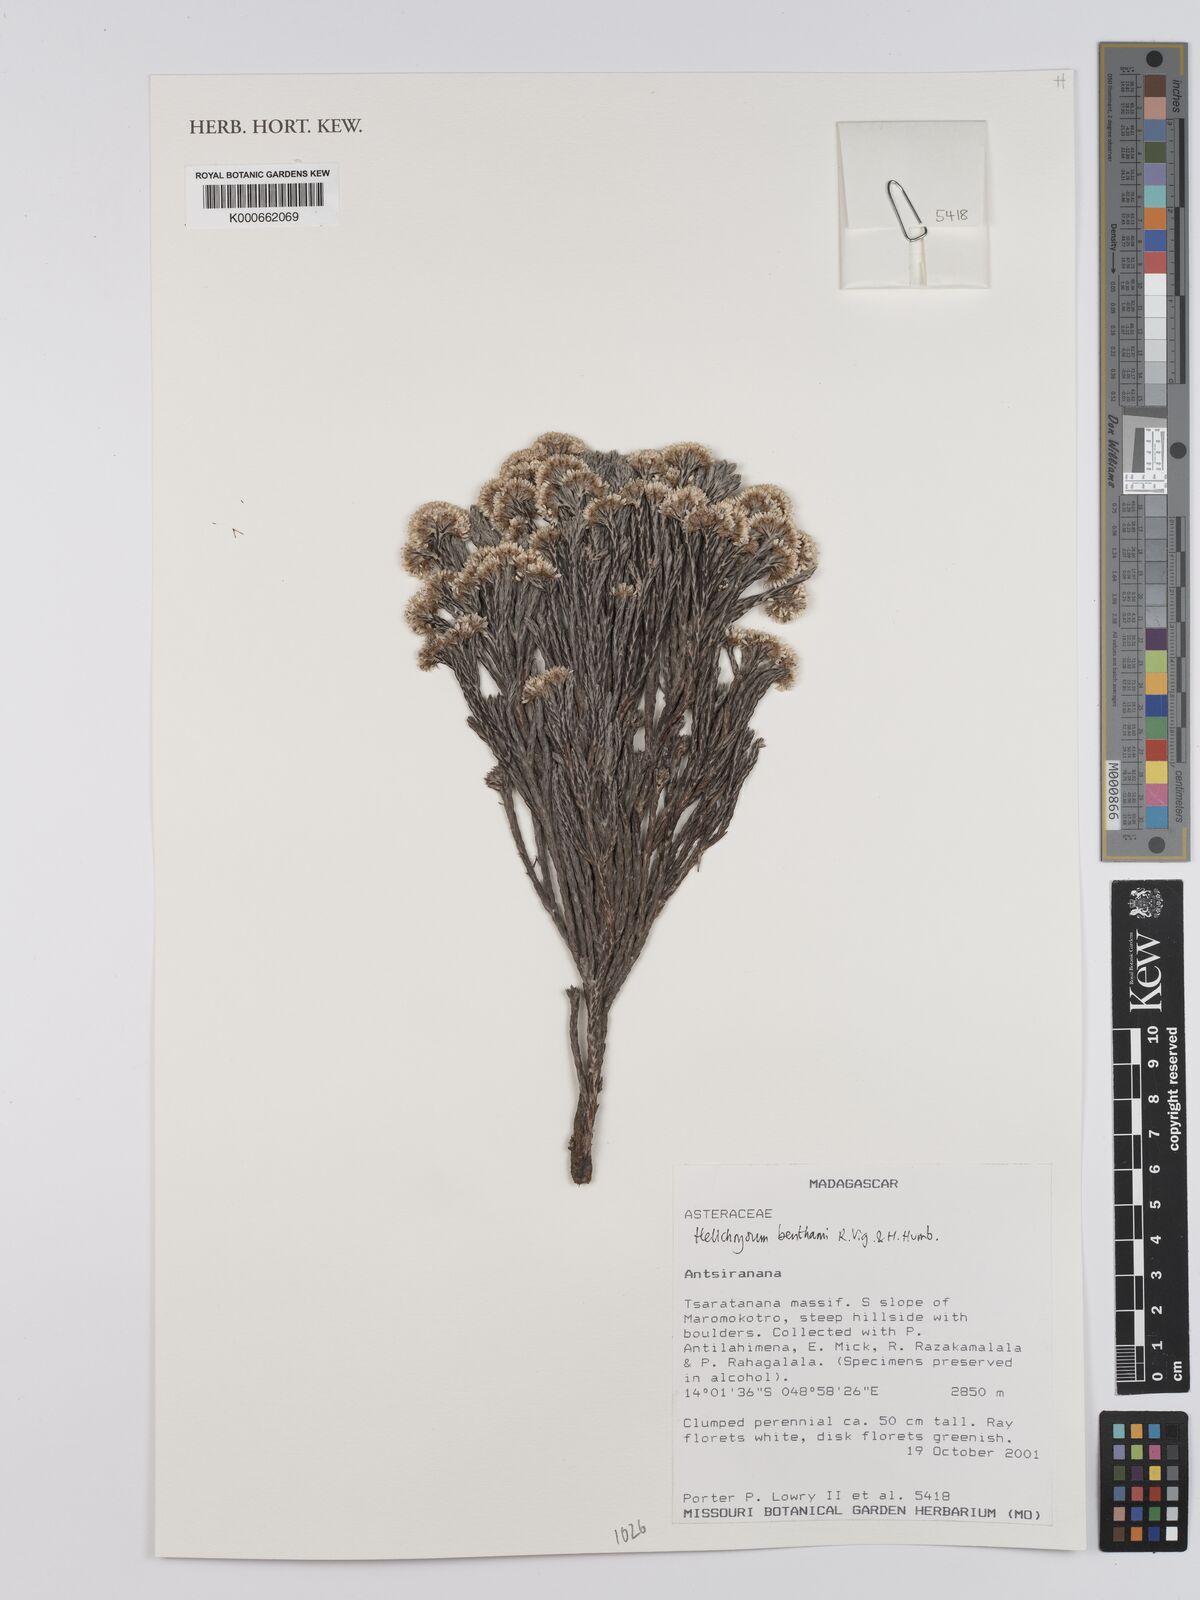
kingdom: Plantae
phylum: Tracheophyta
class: Magnoliopsida
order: Asterales
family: Asteraceae
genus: Helichrysum
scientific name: Helichrysum benthamii
